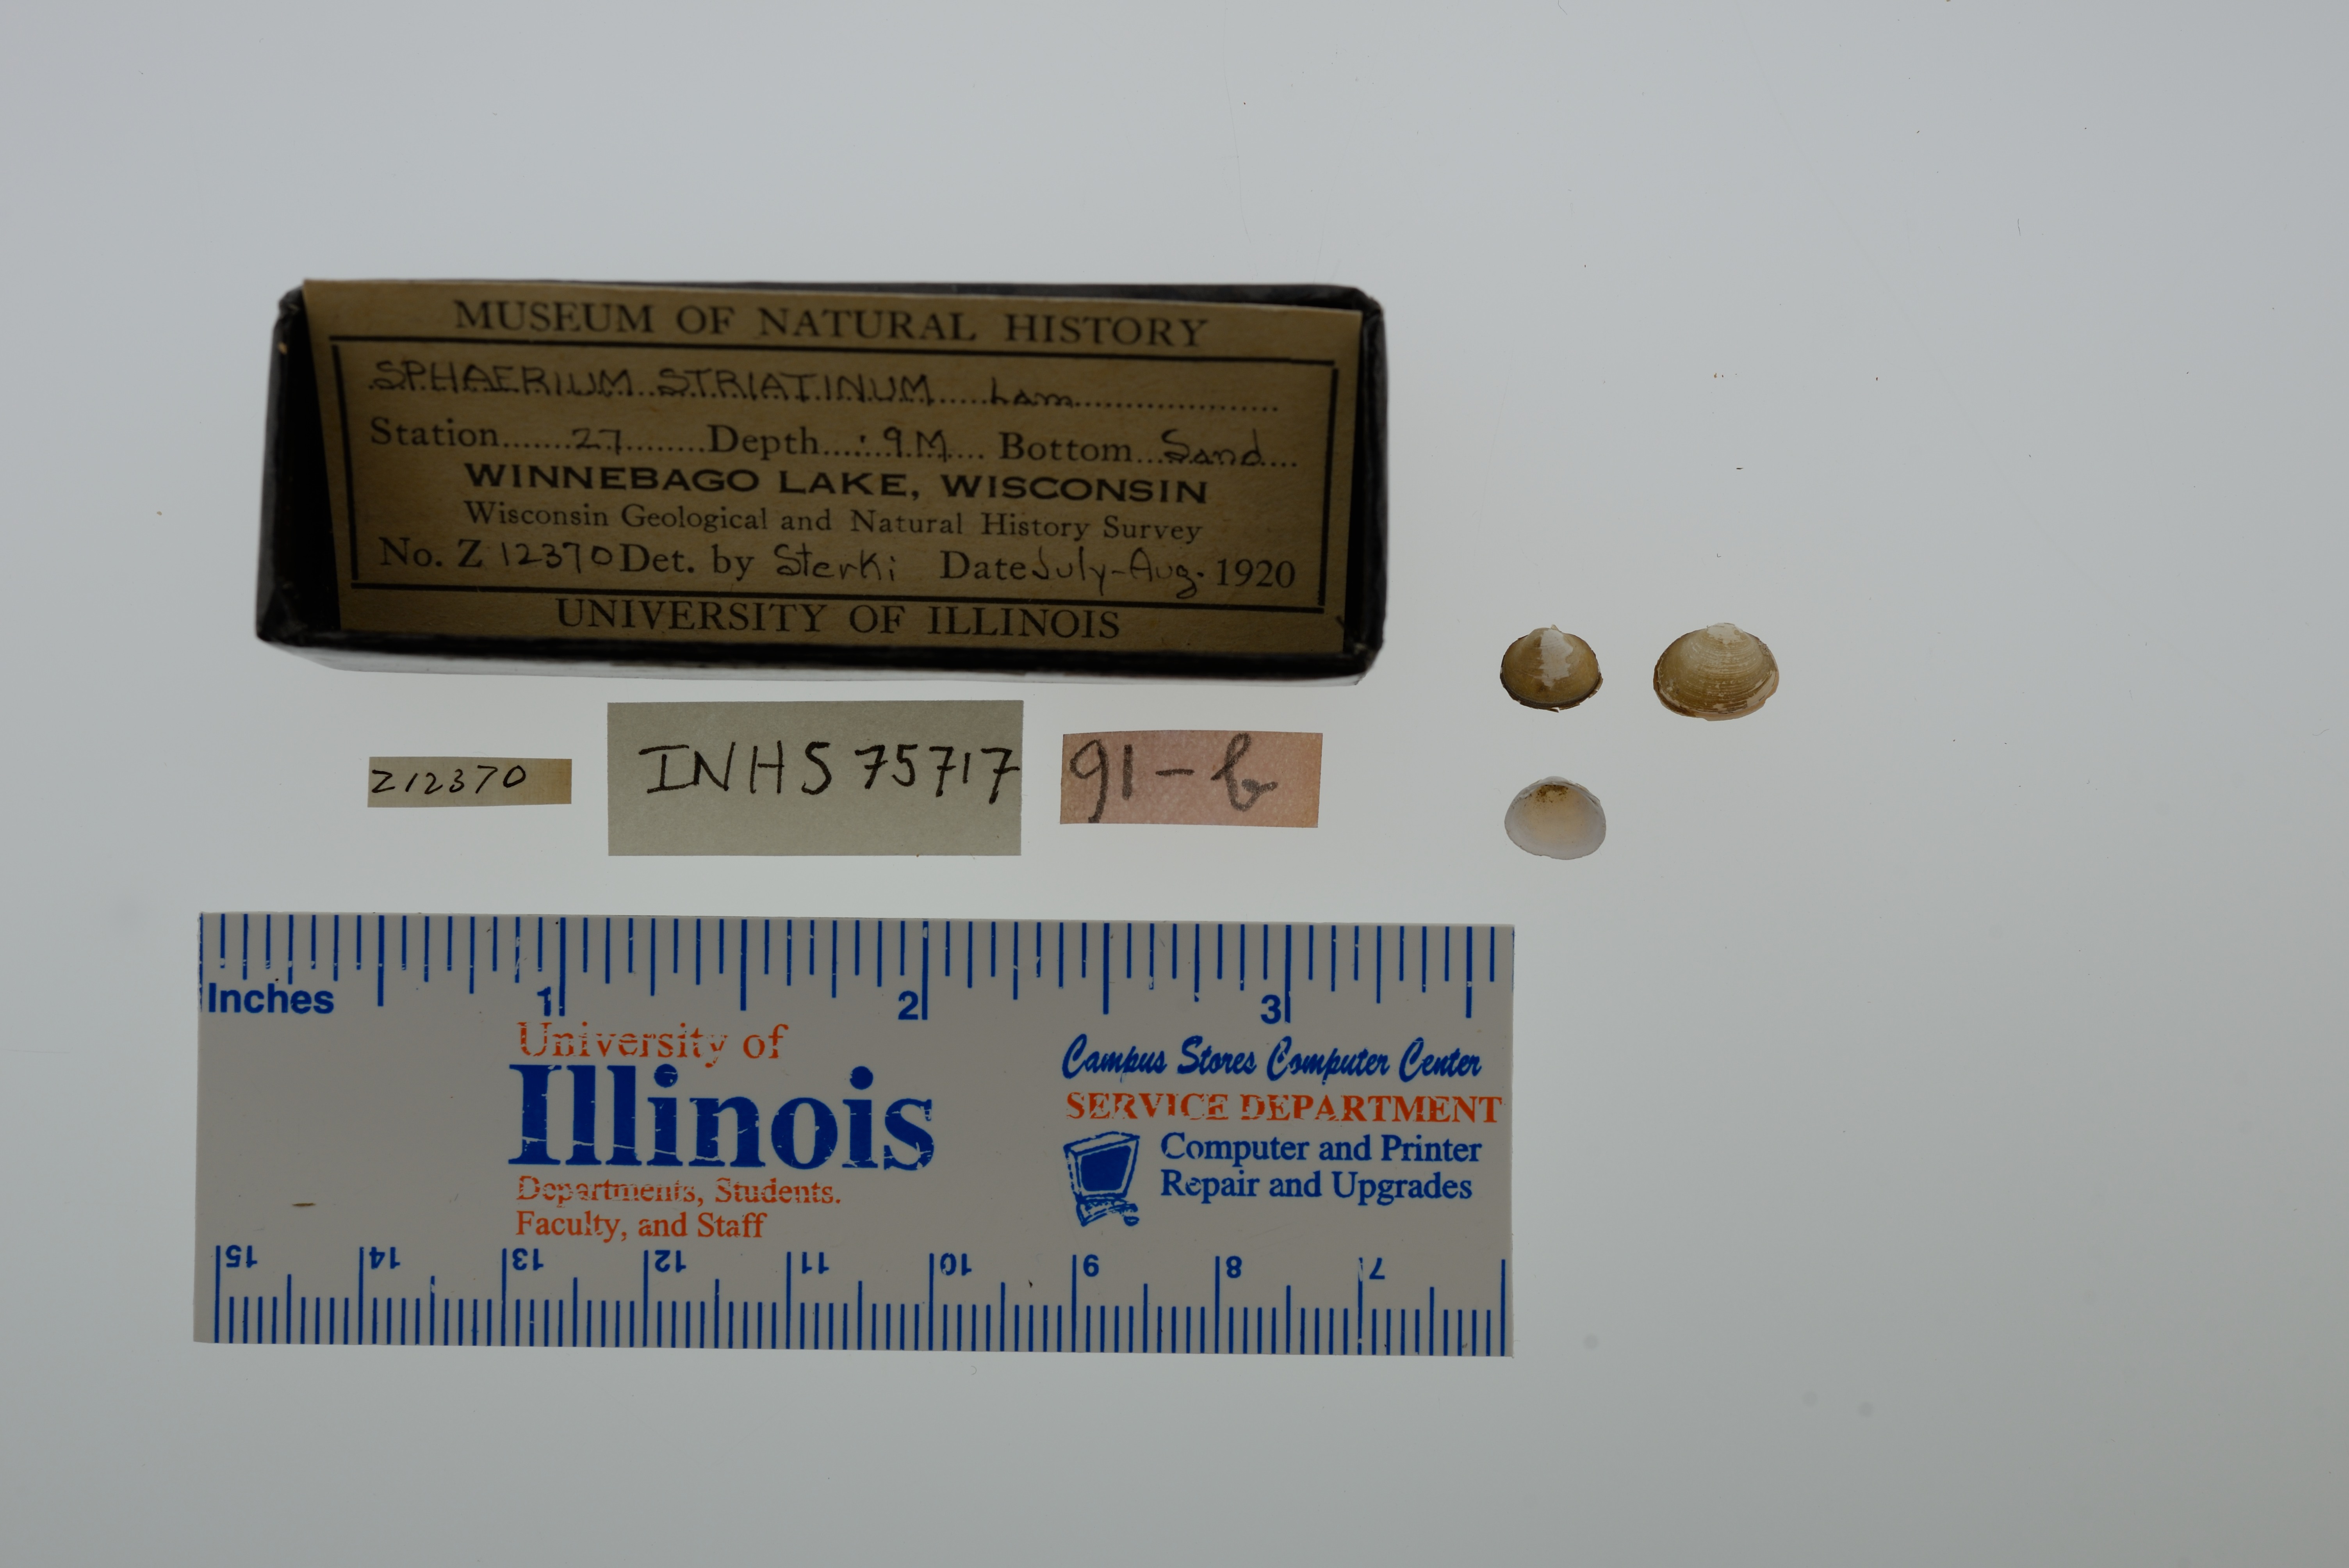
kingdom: Animalia
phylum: Mollusca
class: Bivalvia
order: Sphaeriida
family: Sphaeriidae
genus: Sphaerium
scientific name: Sphaerium striatinum
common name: Striated fingernailclam
